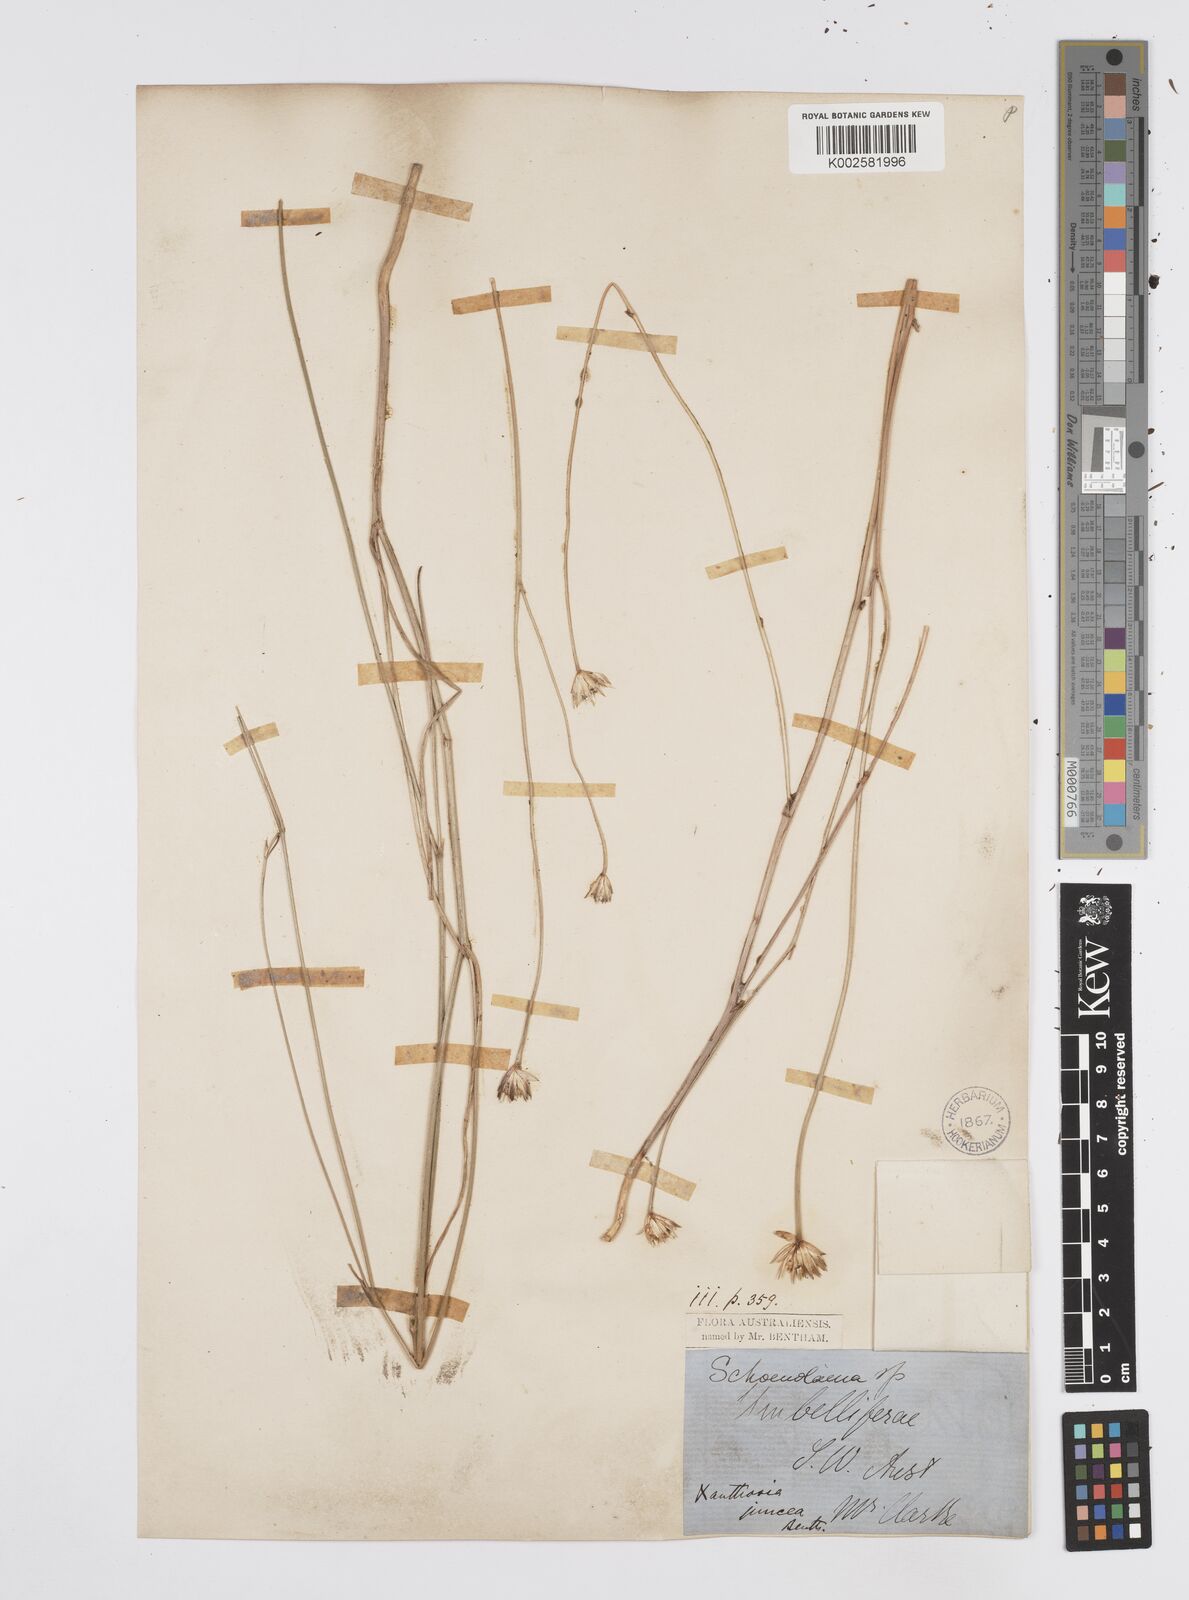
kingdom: Plantae
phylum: Tracheophyta
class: Magnoliopsida
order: Apiales
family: Apiaceae
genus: Schoenolaena
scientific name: Schoenolaena juncea
